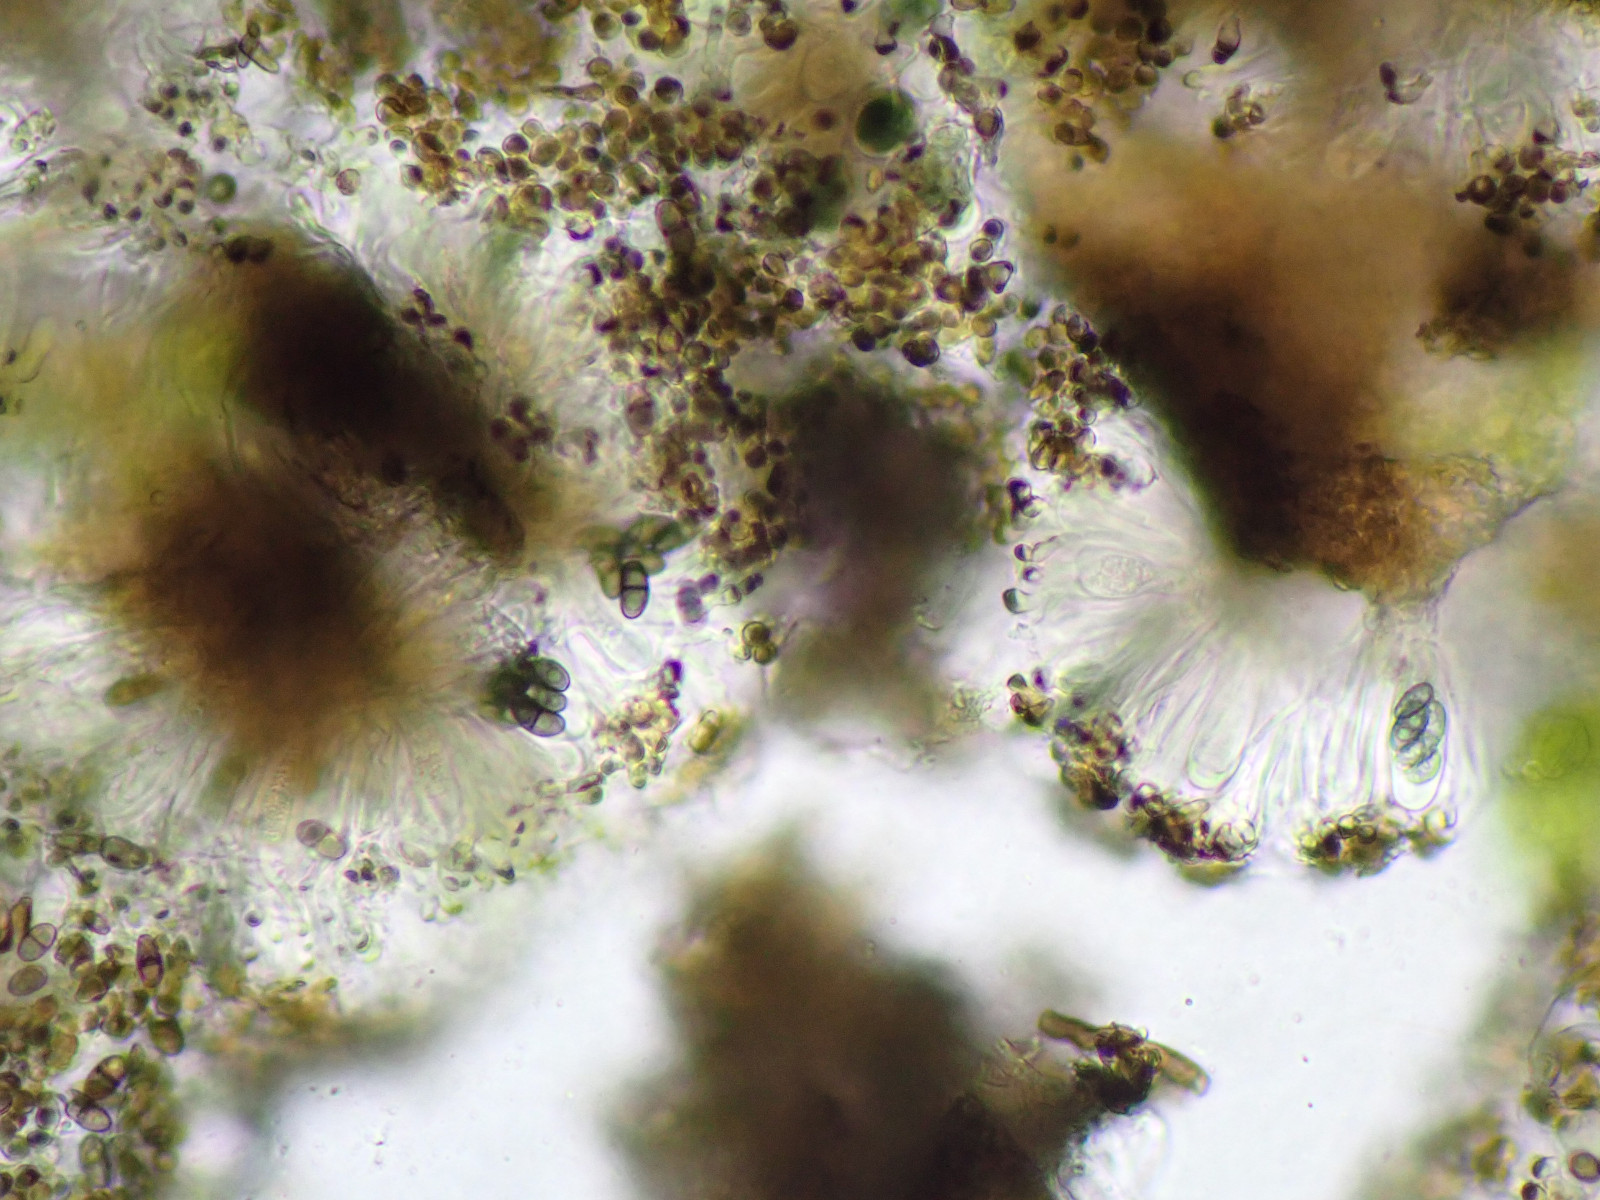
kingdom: Fungi
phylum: Ascomycota
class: Lecanoromycetes
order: Caliciales
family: Caliciaceae
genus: Amandinea
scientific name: Amandinea punctata
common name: liden sortskivelav
